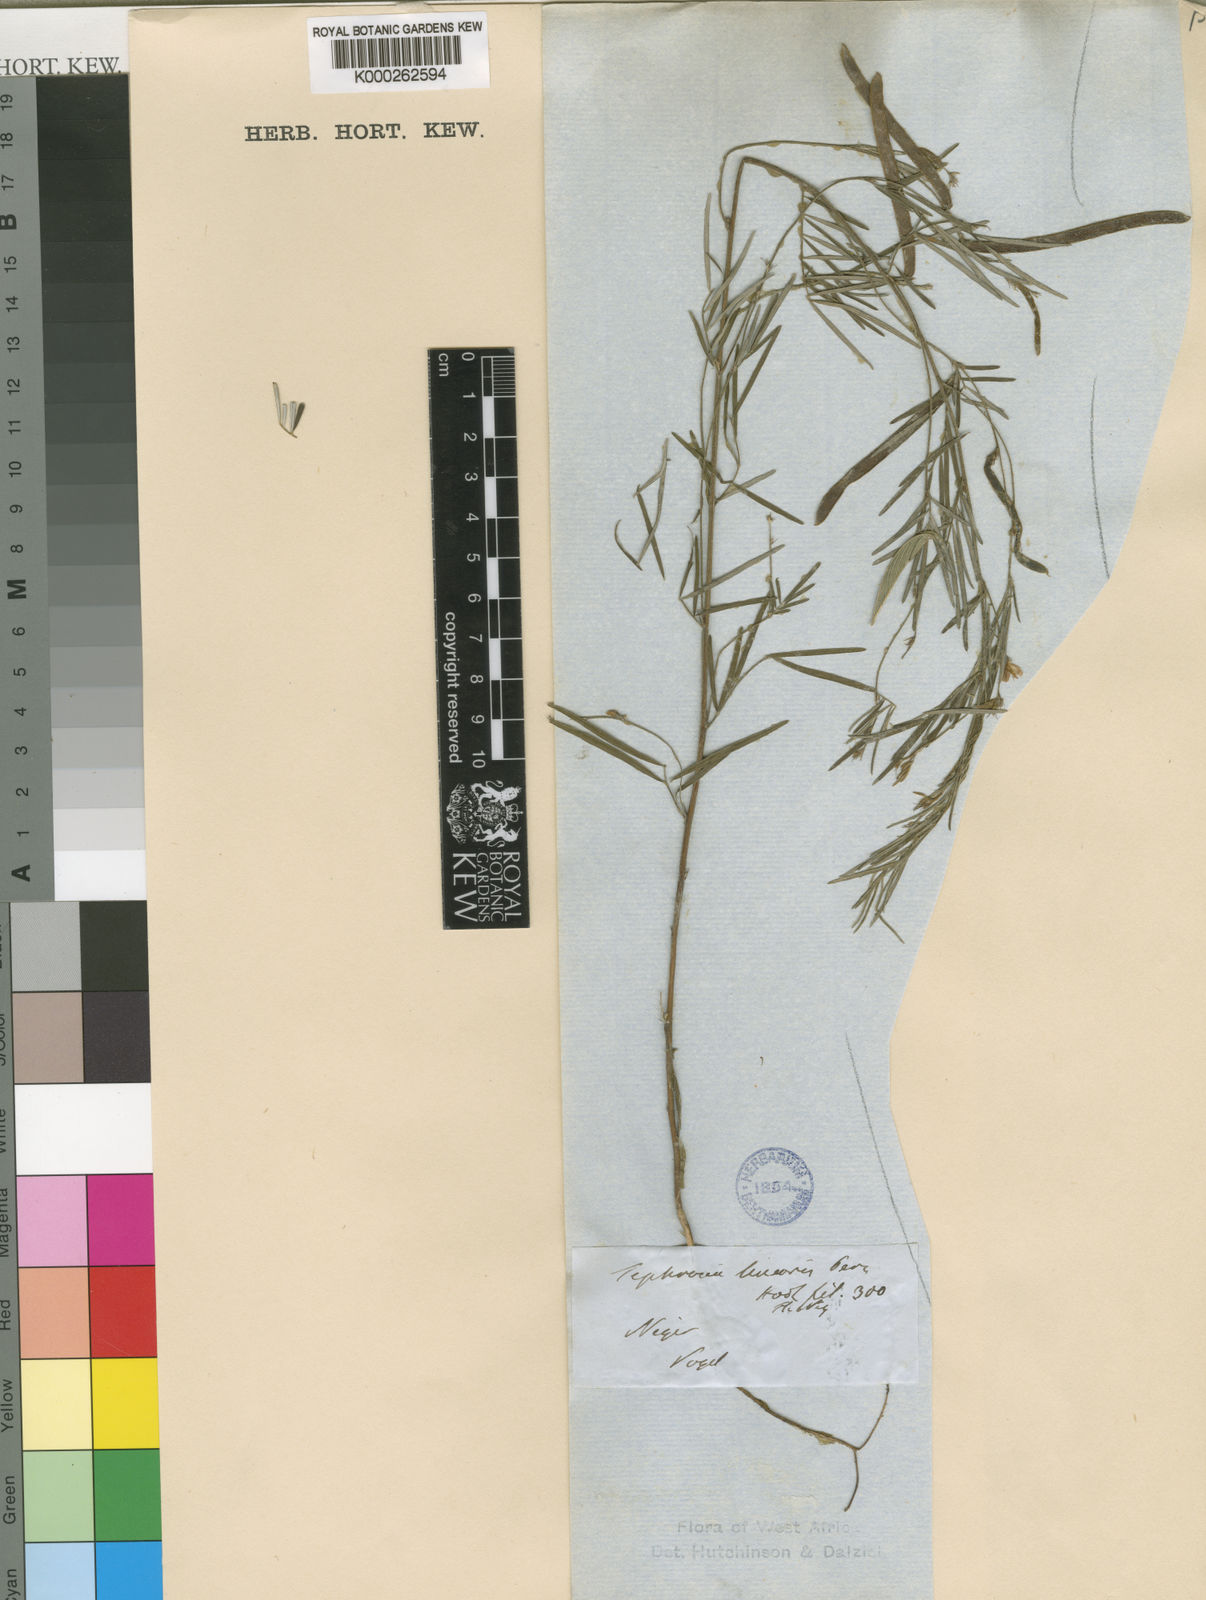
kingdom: Plantae
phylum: Tracheophyta
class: Magnoliopsida
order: Fabales
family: Fabaceae
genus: Tephrosia
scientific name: Tephrosia linearis
